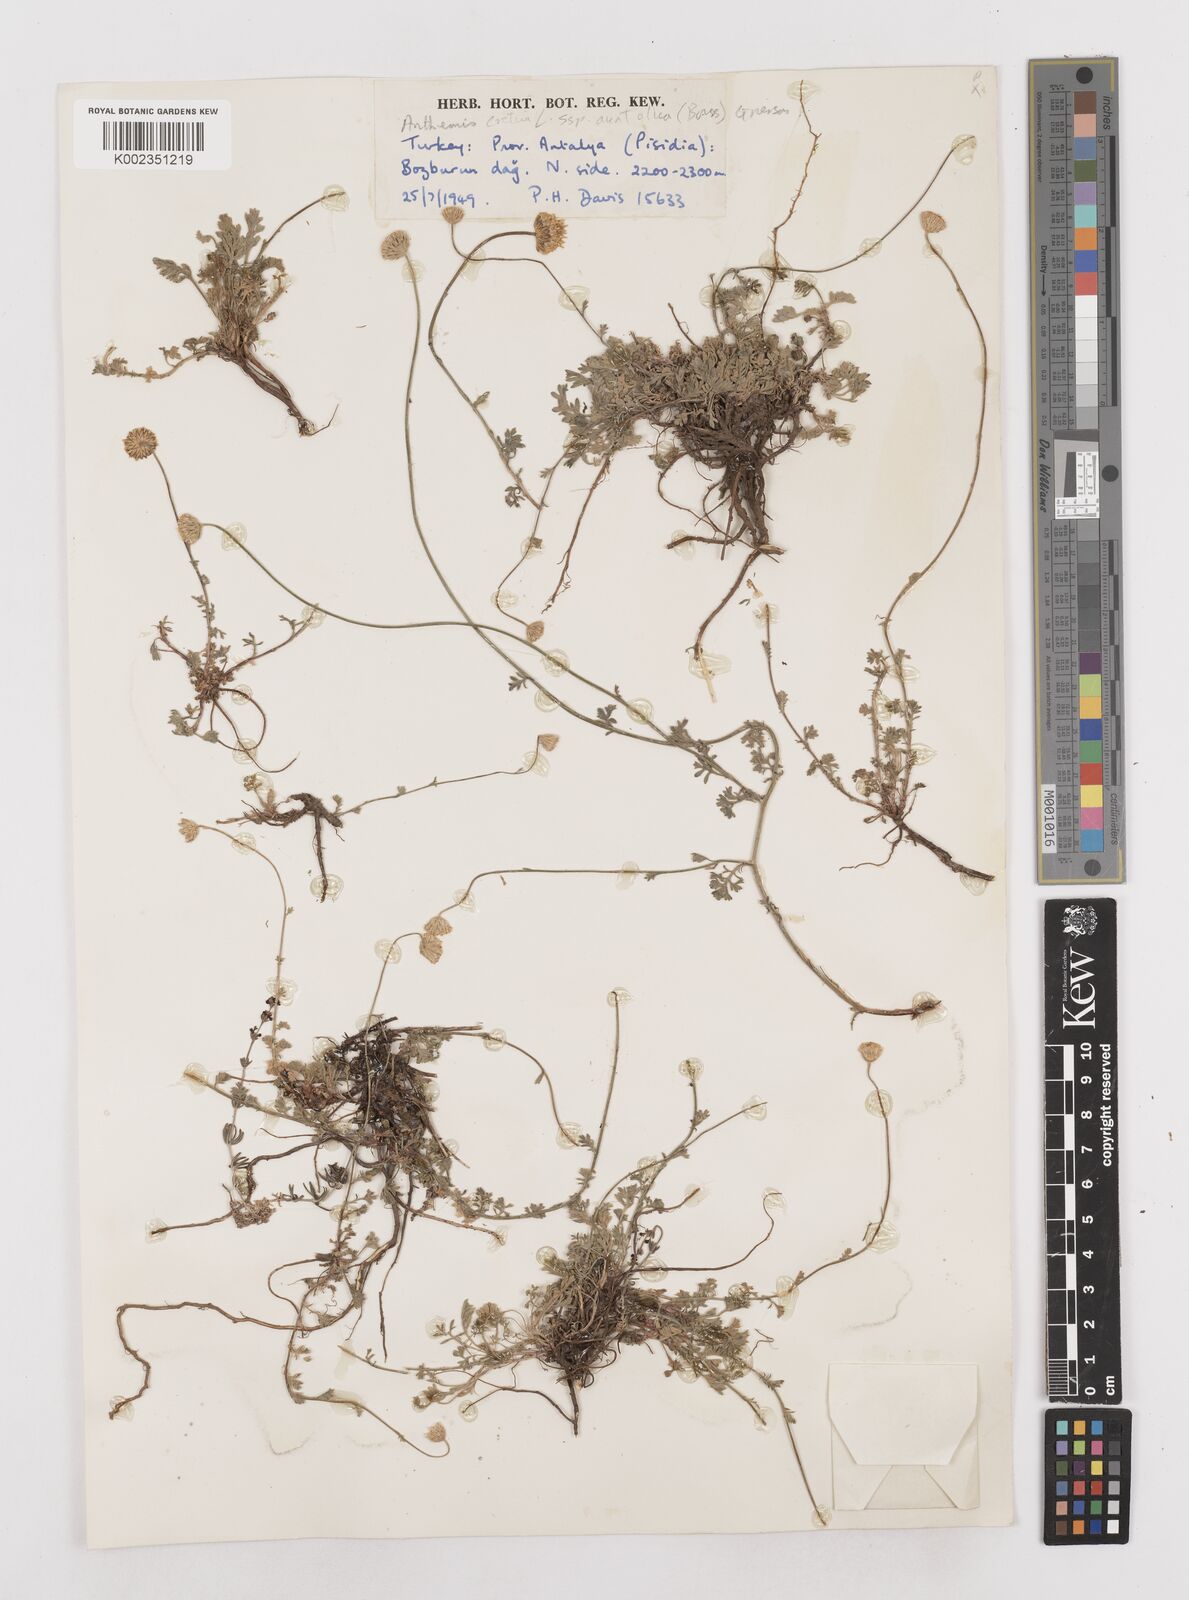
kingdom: Plantae
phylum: Tracheophyta
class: Magnoliopsida
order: Asterales
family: Asteraceae
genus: Anthemis
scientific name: Anthemis cretica
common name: Mountain dog-daisy
